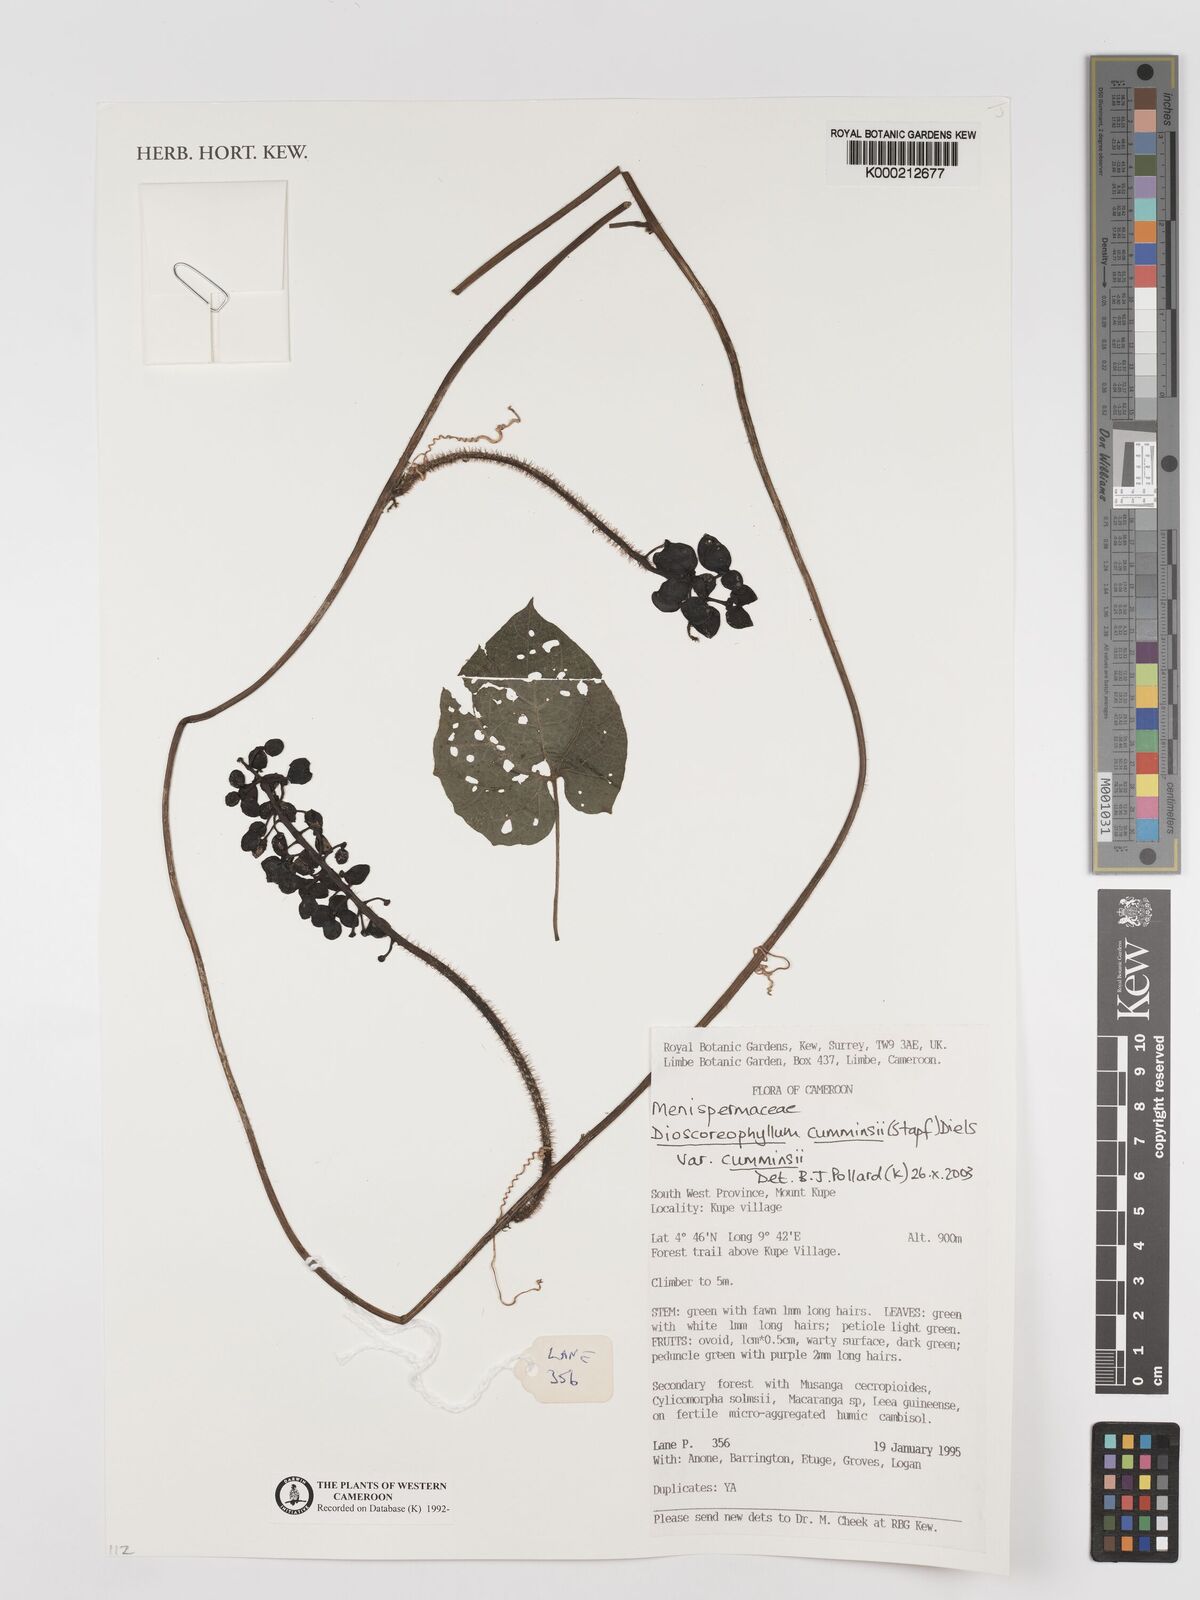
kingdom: Plantae
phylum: Tracheophyta
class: Magnoliopsida
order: Ranunculales
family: Menispermaceae
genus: Dioscoreophyllum
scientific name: Dioscoreophyllum volkensii
